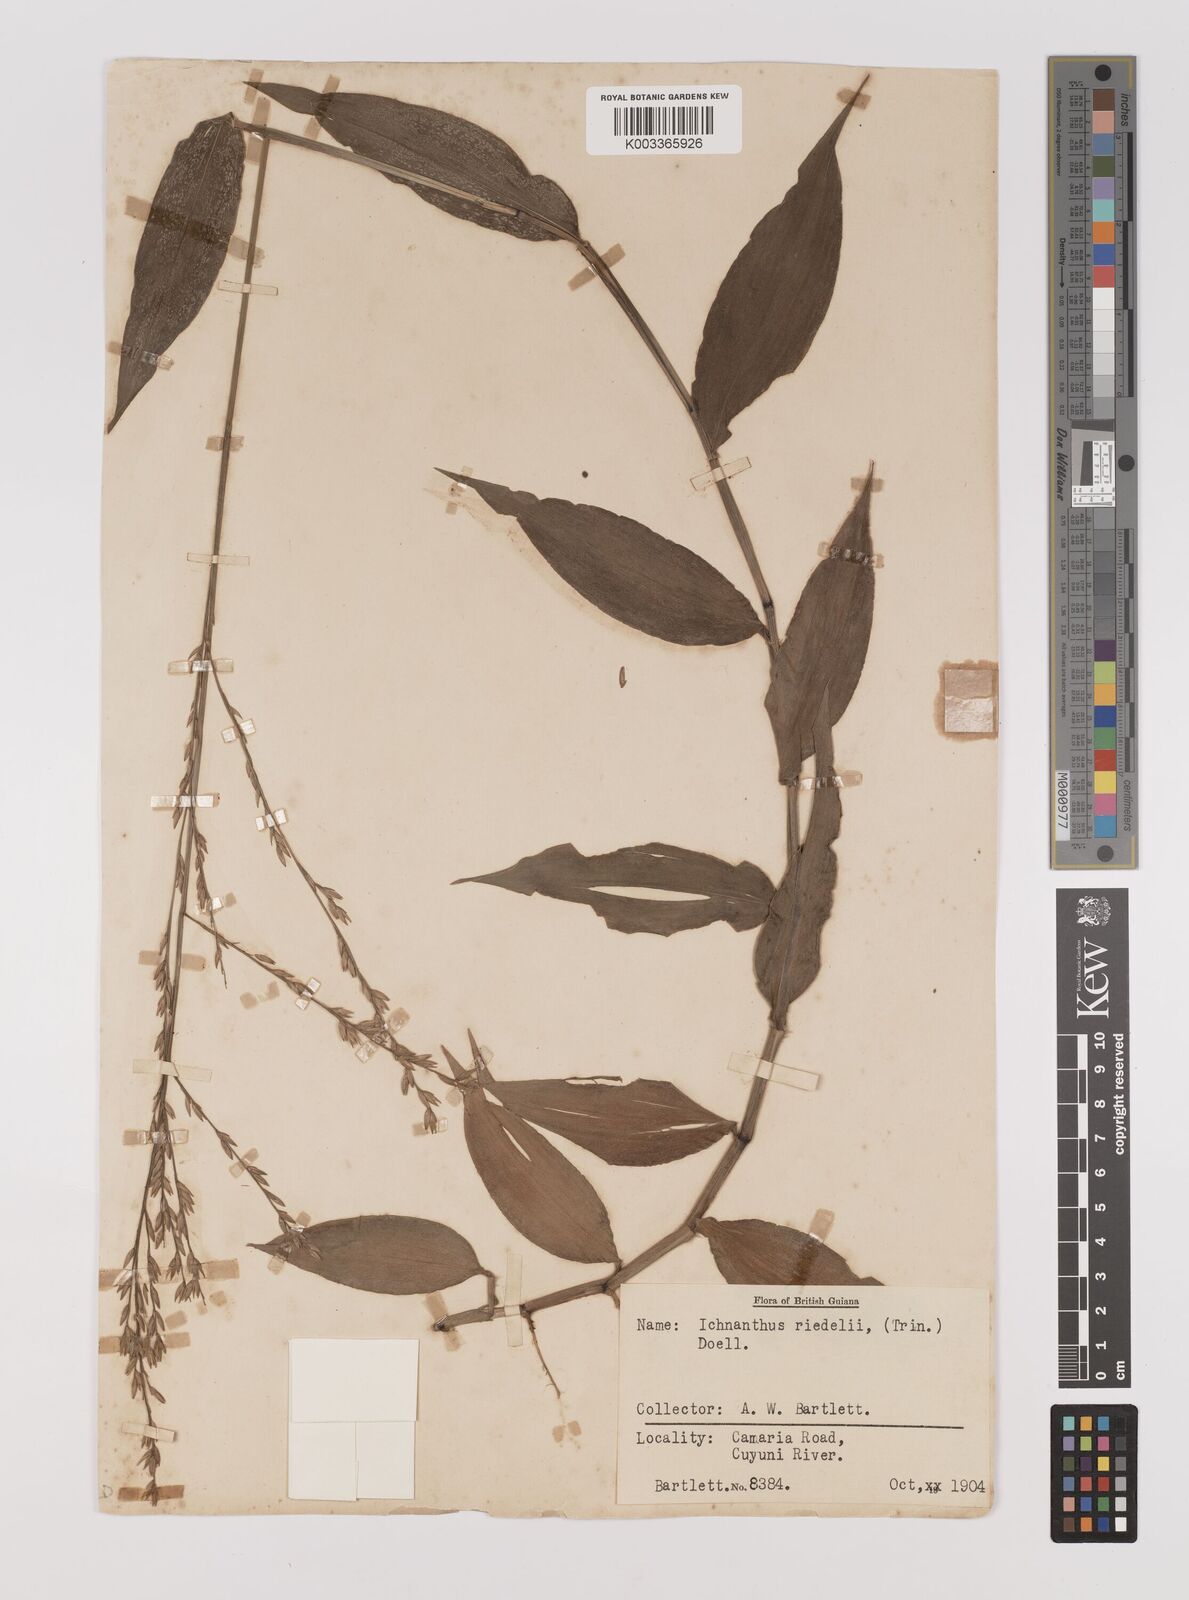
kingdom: Plantae
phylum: Tracheophyta
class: Liliopsida
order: Poales
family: Poaceae
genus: Ichnanthus
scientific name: Ichnanthus nemoralis
